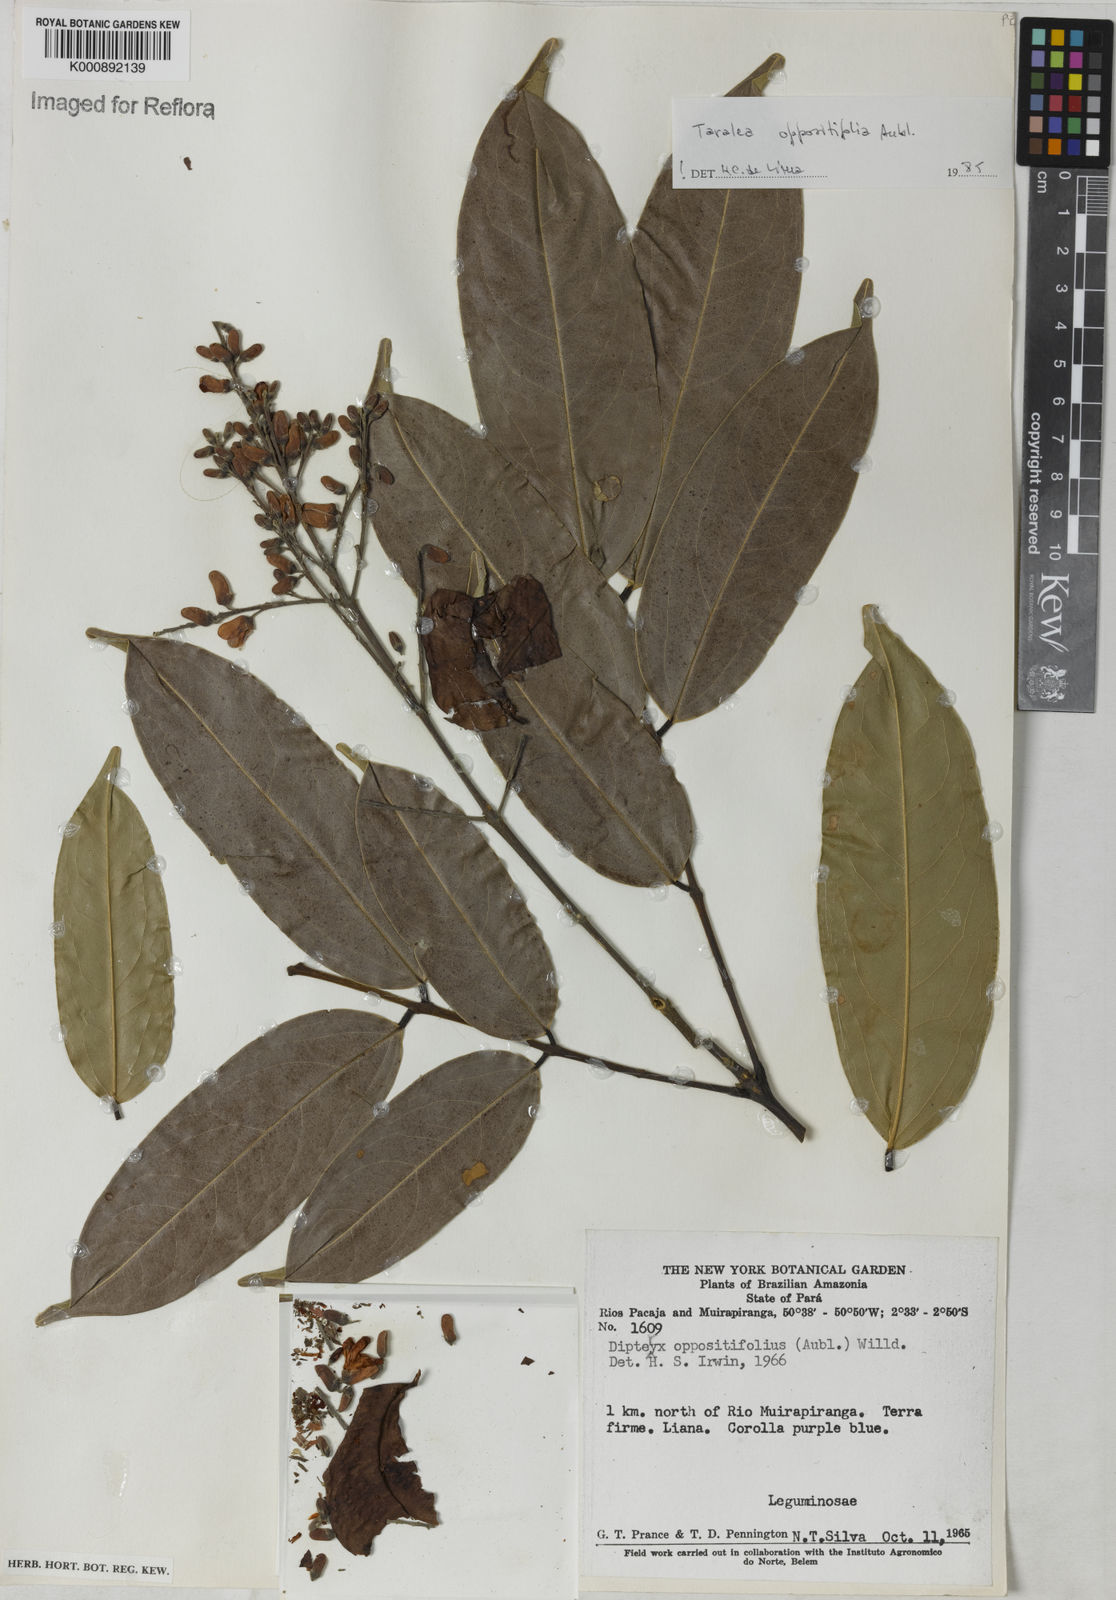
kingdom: Plantae
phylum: Tracheophyta
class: Magnoliopsida
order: Fabales
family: Fabaceae
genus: Taralea
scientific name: Taralea oppositifolia
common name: Tonka
